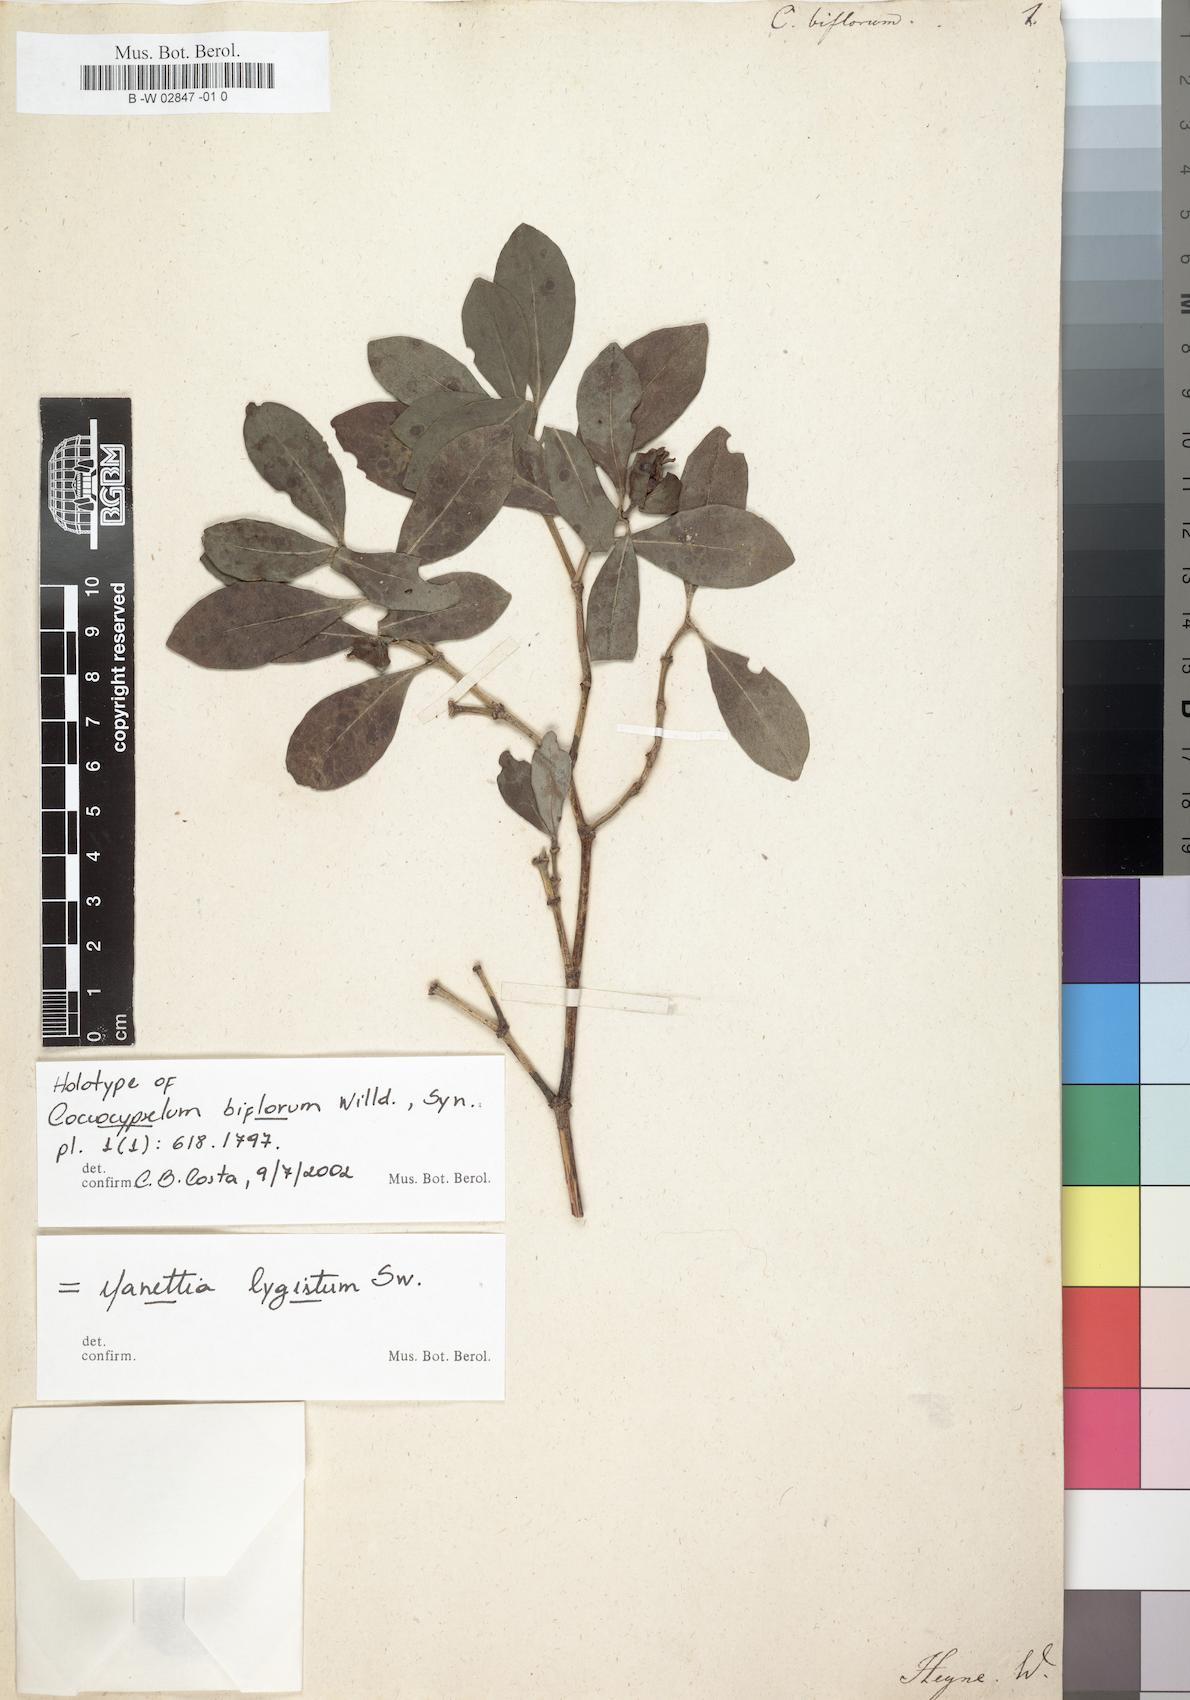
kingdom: Plantae
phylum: Tracheophyta
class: Magnoliopsida
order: Gentianales
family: Rubiaceae
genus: Manettia
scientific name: Manettia lygistum
